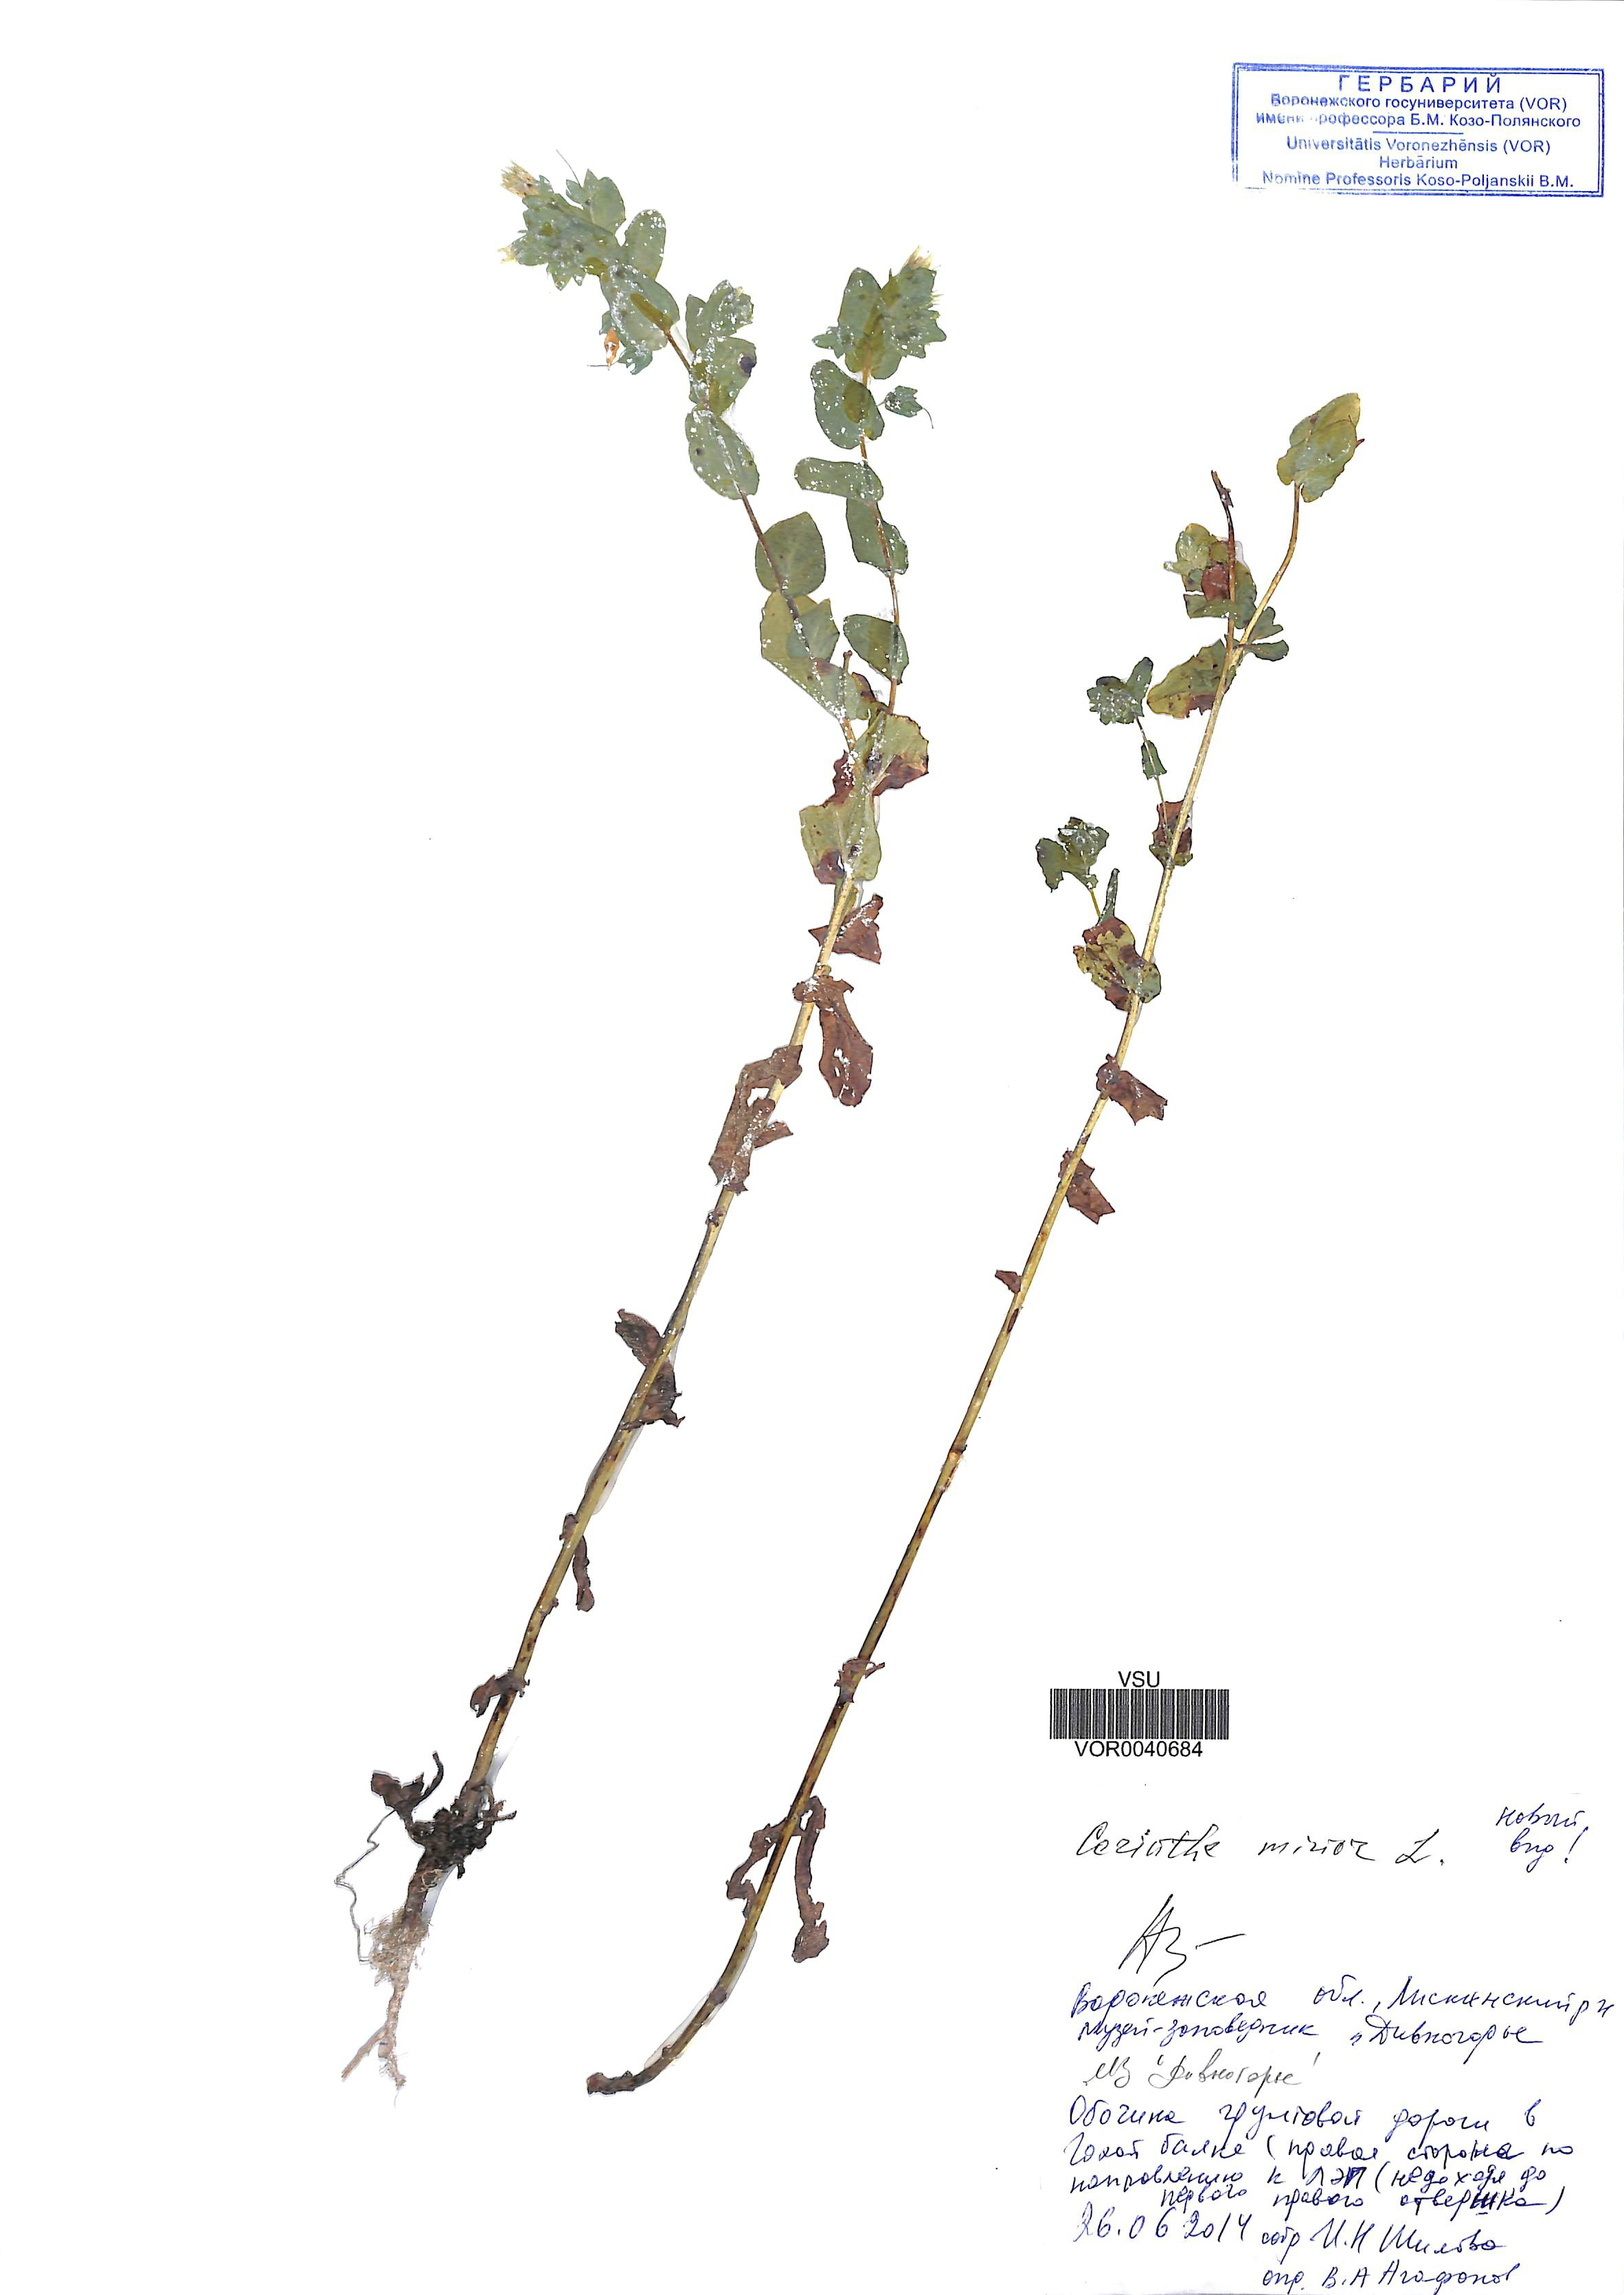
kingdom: Plantae
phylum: Tracheophyta
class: Magnoliopsida
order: Boraginales
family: Boraginaceae
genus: Cerinthe
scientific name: Cerinthe minor
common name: Lesser honeywort
